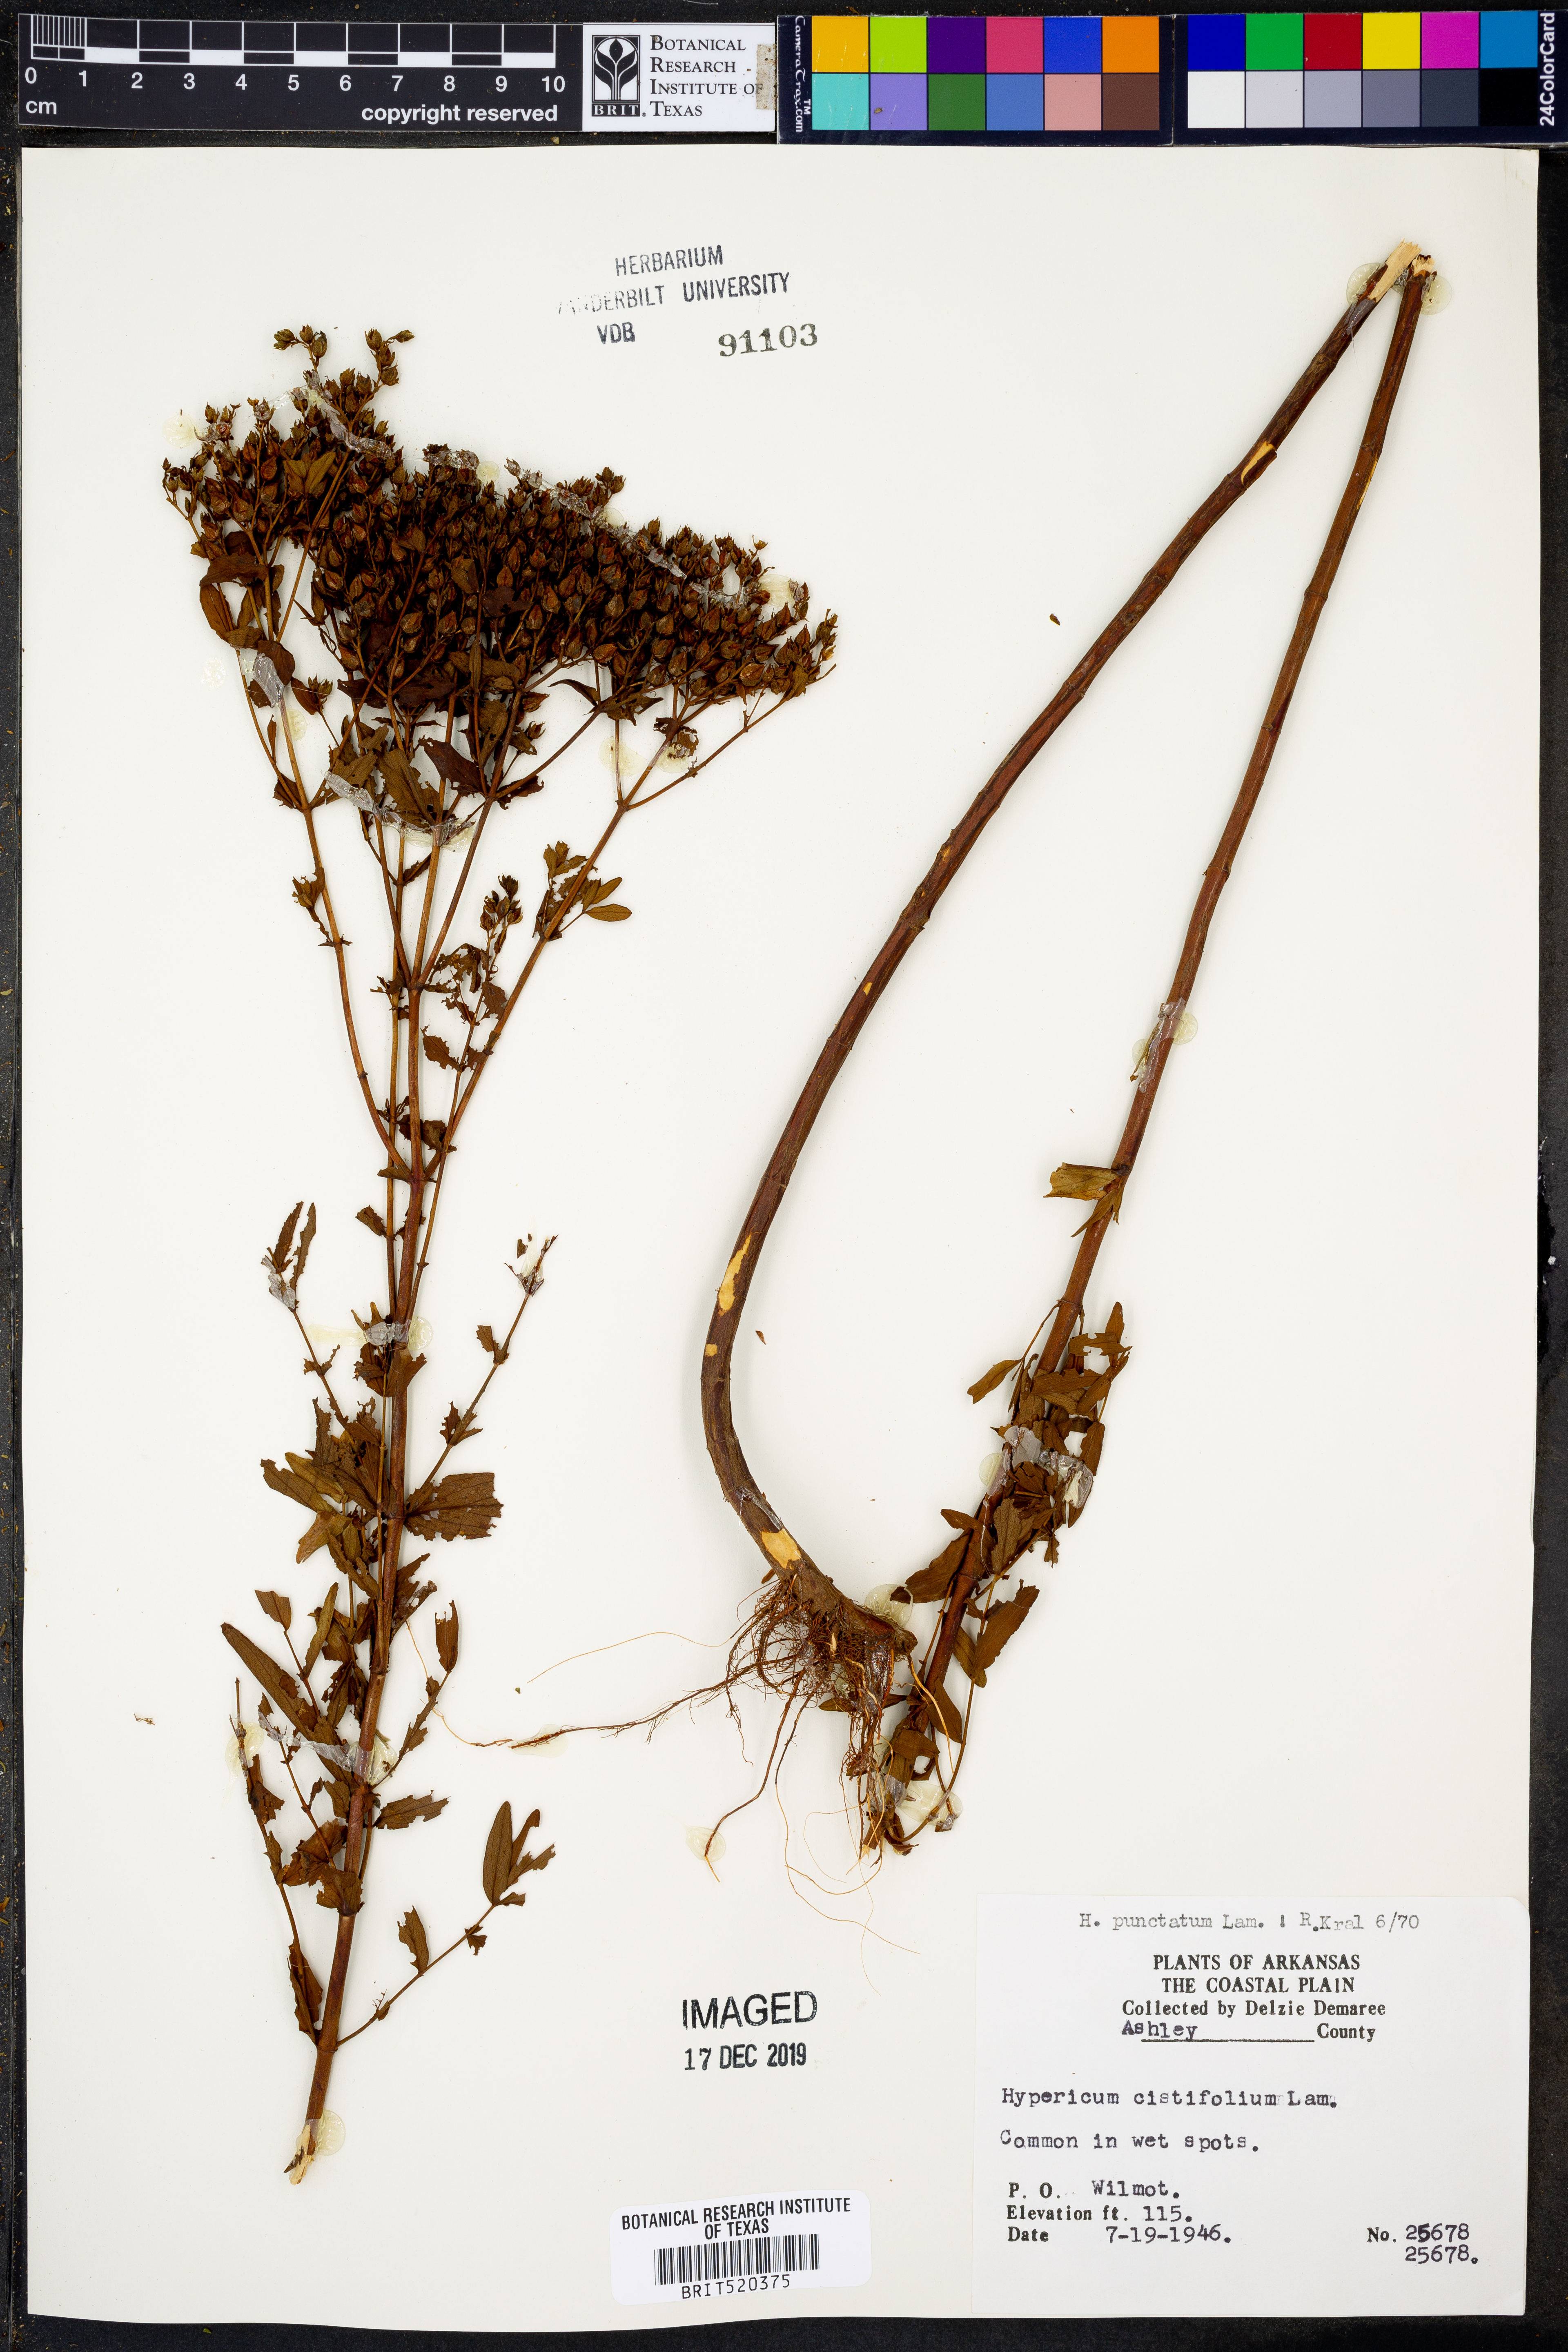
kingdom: Plantae
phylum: Tracheophyta
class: Magnoliopsida
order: Malpighiales
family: Hypericaceae
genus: Hypericum
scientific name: Hypericum punctatum
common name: Spotted st. john's-wort
